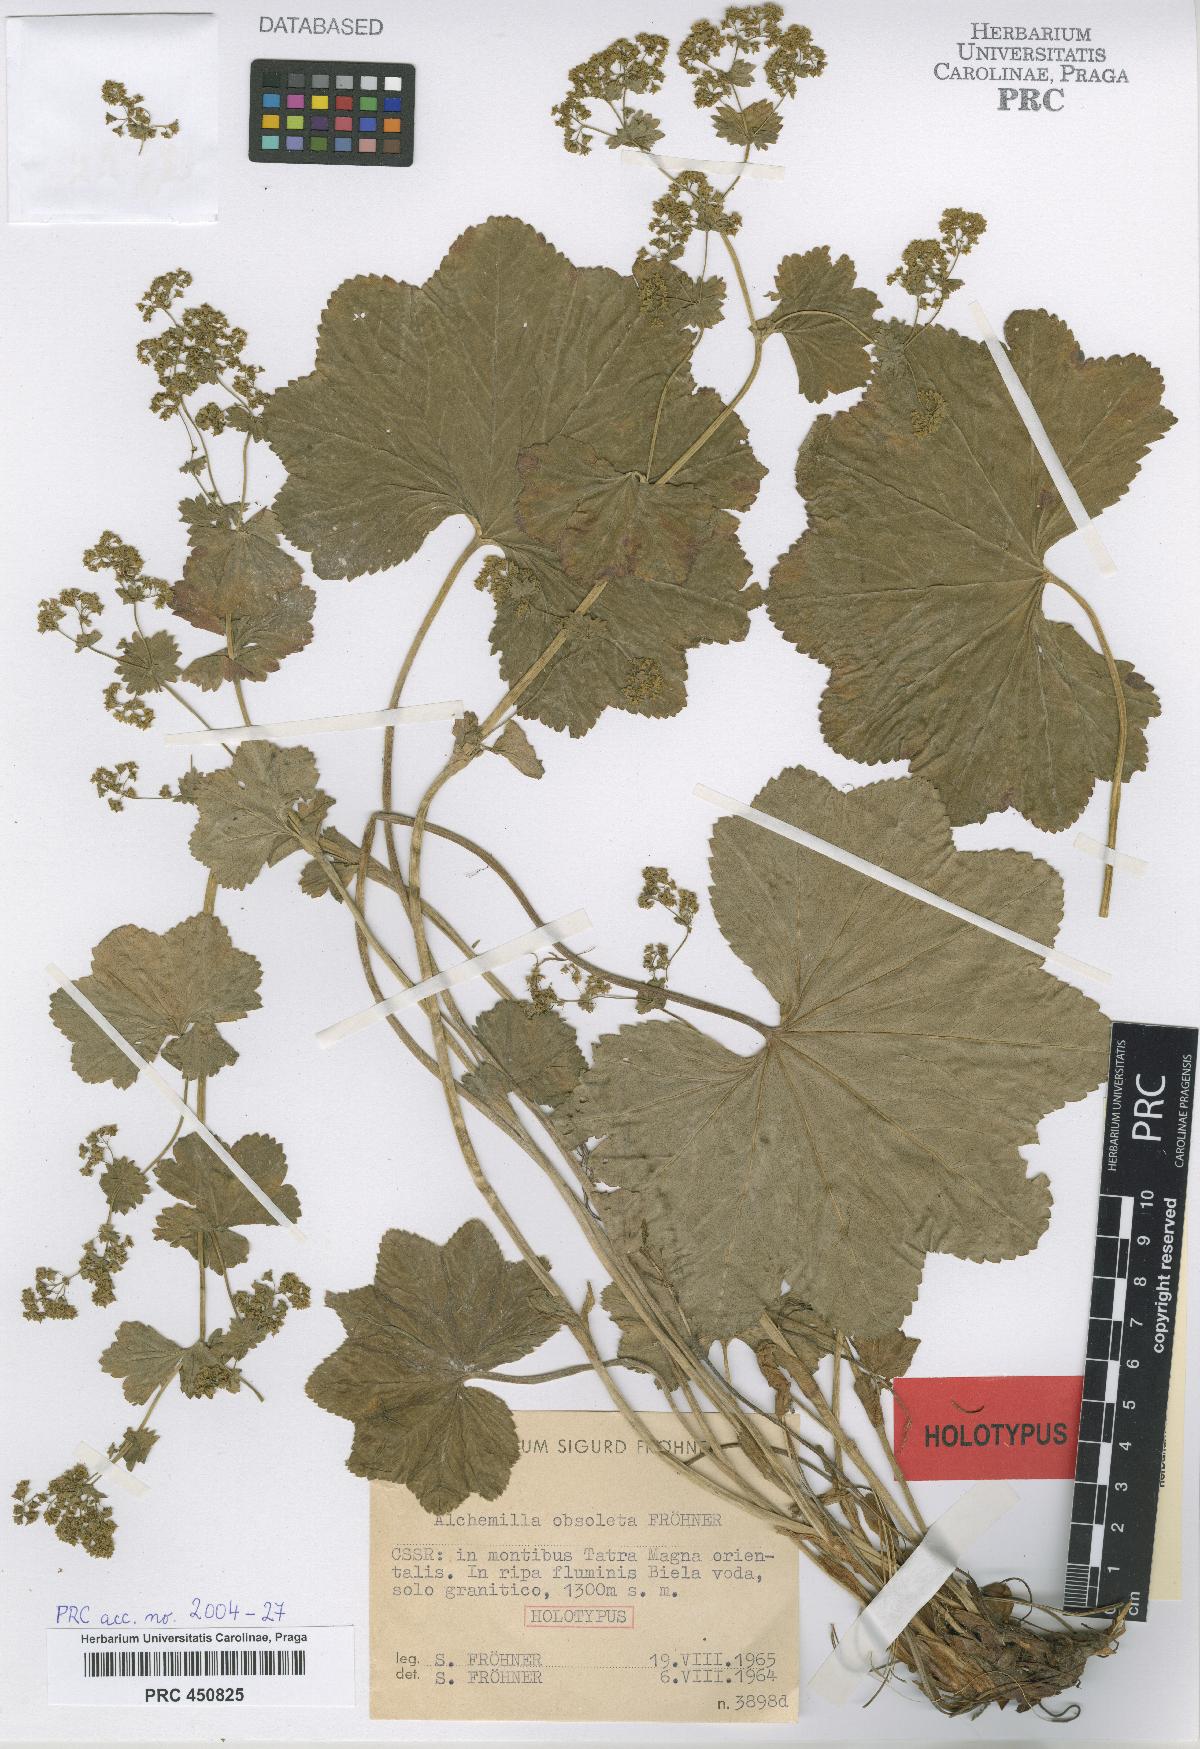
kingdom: Plantae
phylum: Tracheophyta
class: Magnoliopsida
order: Rosales
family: Rosaceae
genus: Alchemilla
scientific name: Alchemilla obsoleta
